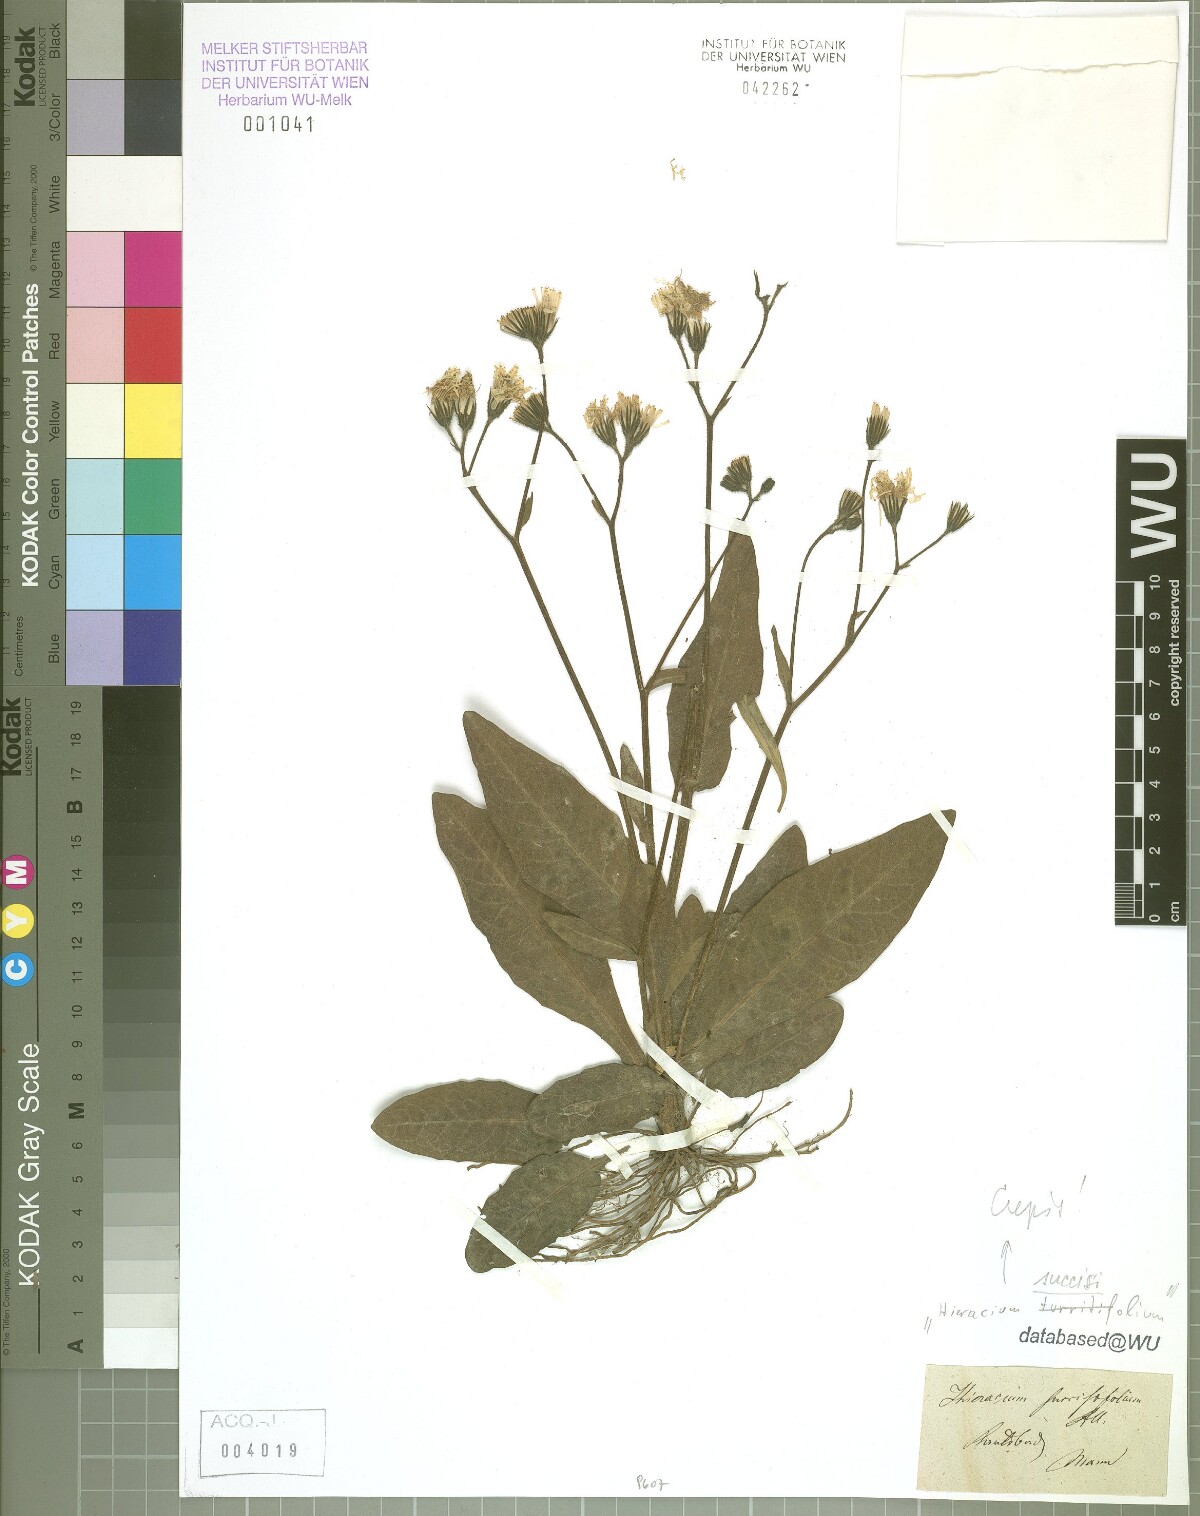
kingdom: Plantae
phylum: Tracheophyta
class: Magnoliopsida
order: Asterales
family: Asteraceae
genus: Crepis
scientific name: Crepis mollis
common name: Northern hawk's-beard
